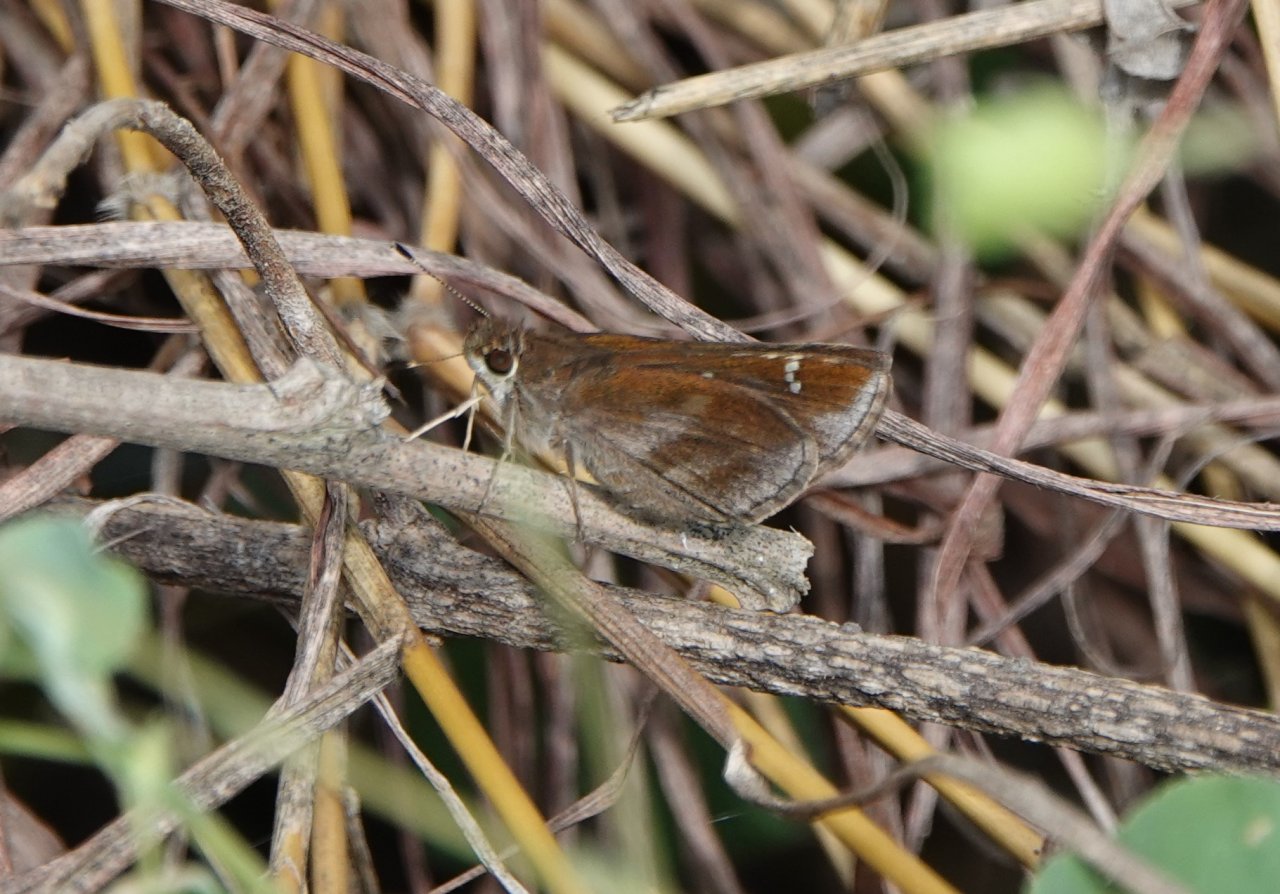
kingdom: Animalia
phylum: Arthropoda
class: Insecta
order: Lepidoptera
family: Hesperiidae
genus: Lerema
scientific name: Lerema accius
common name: Clouded Skipper
